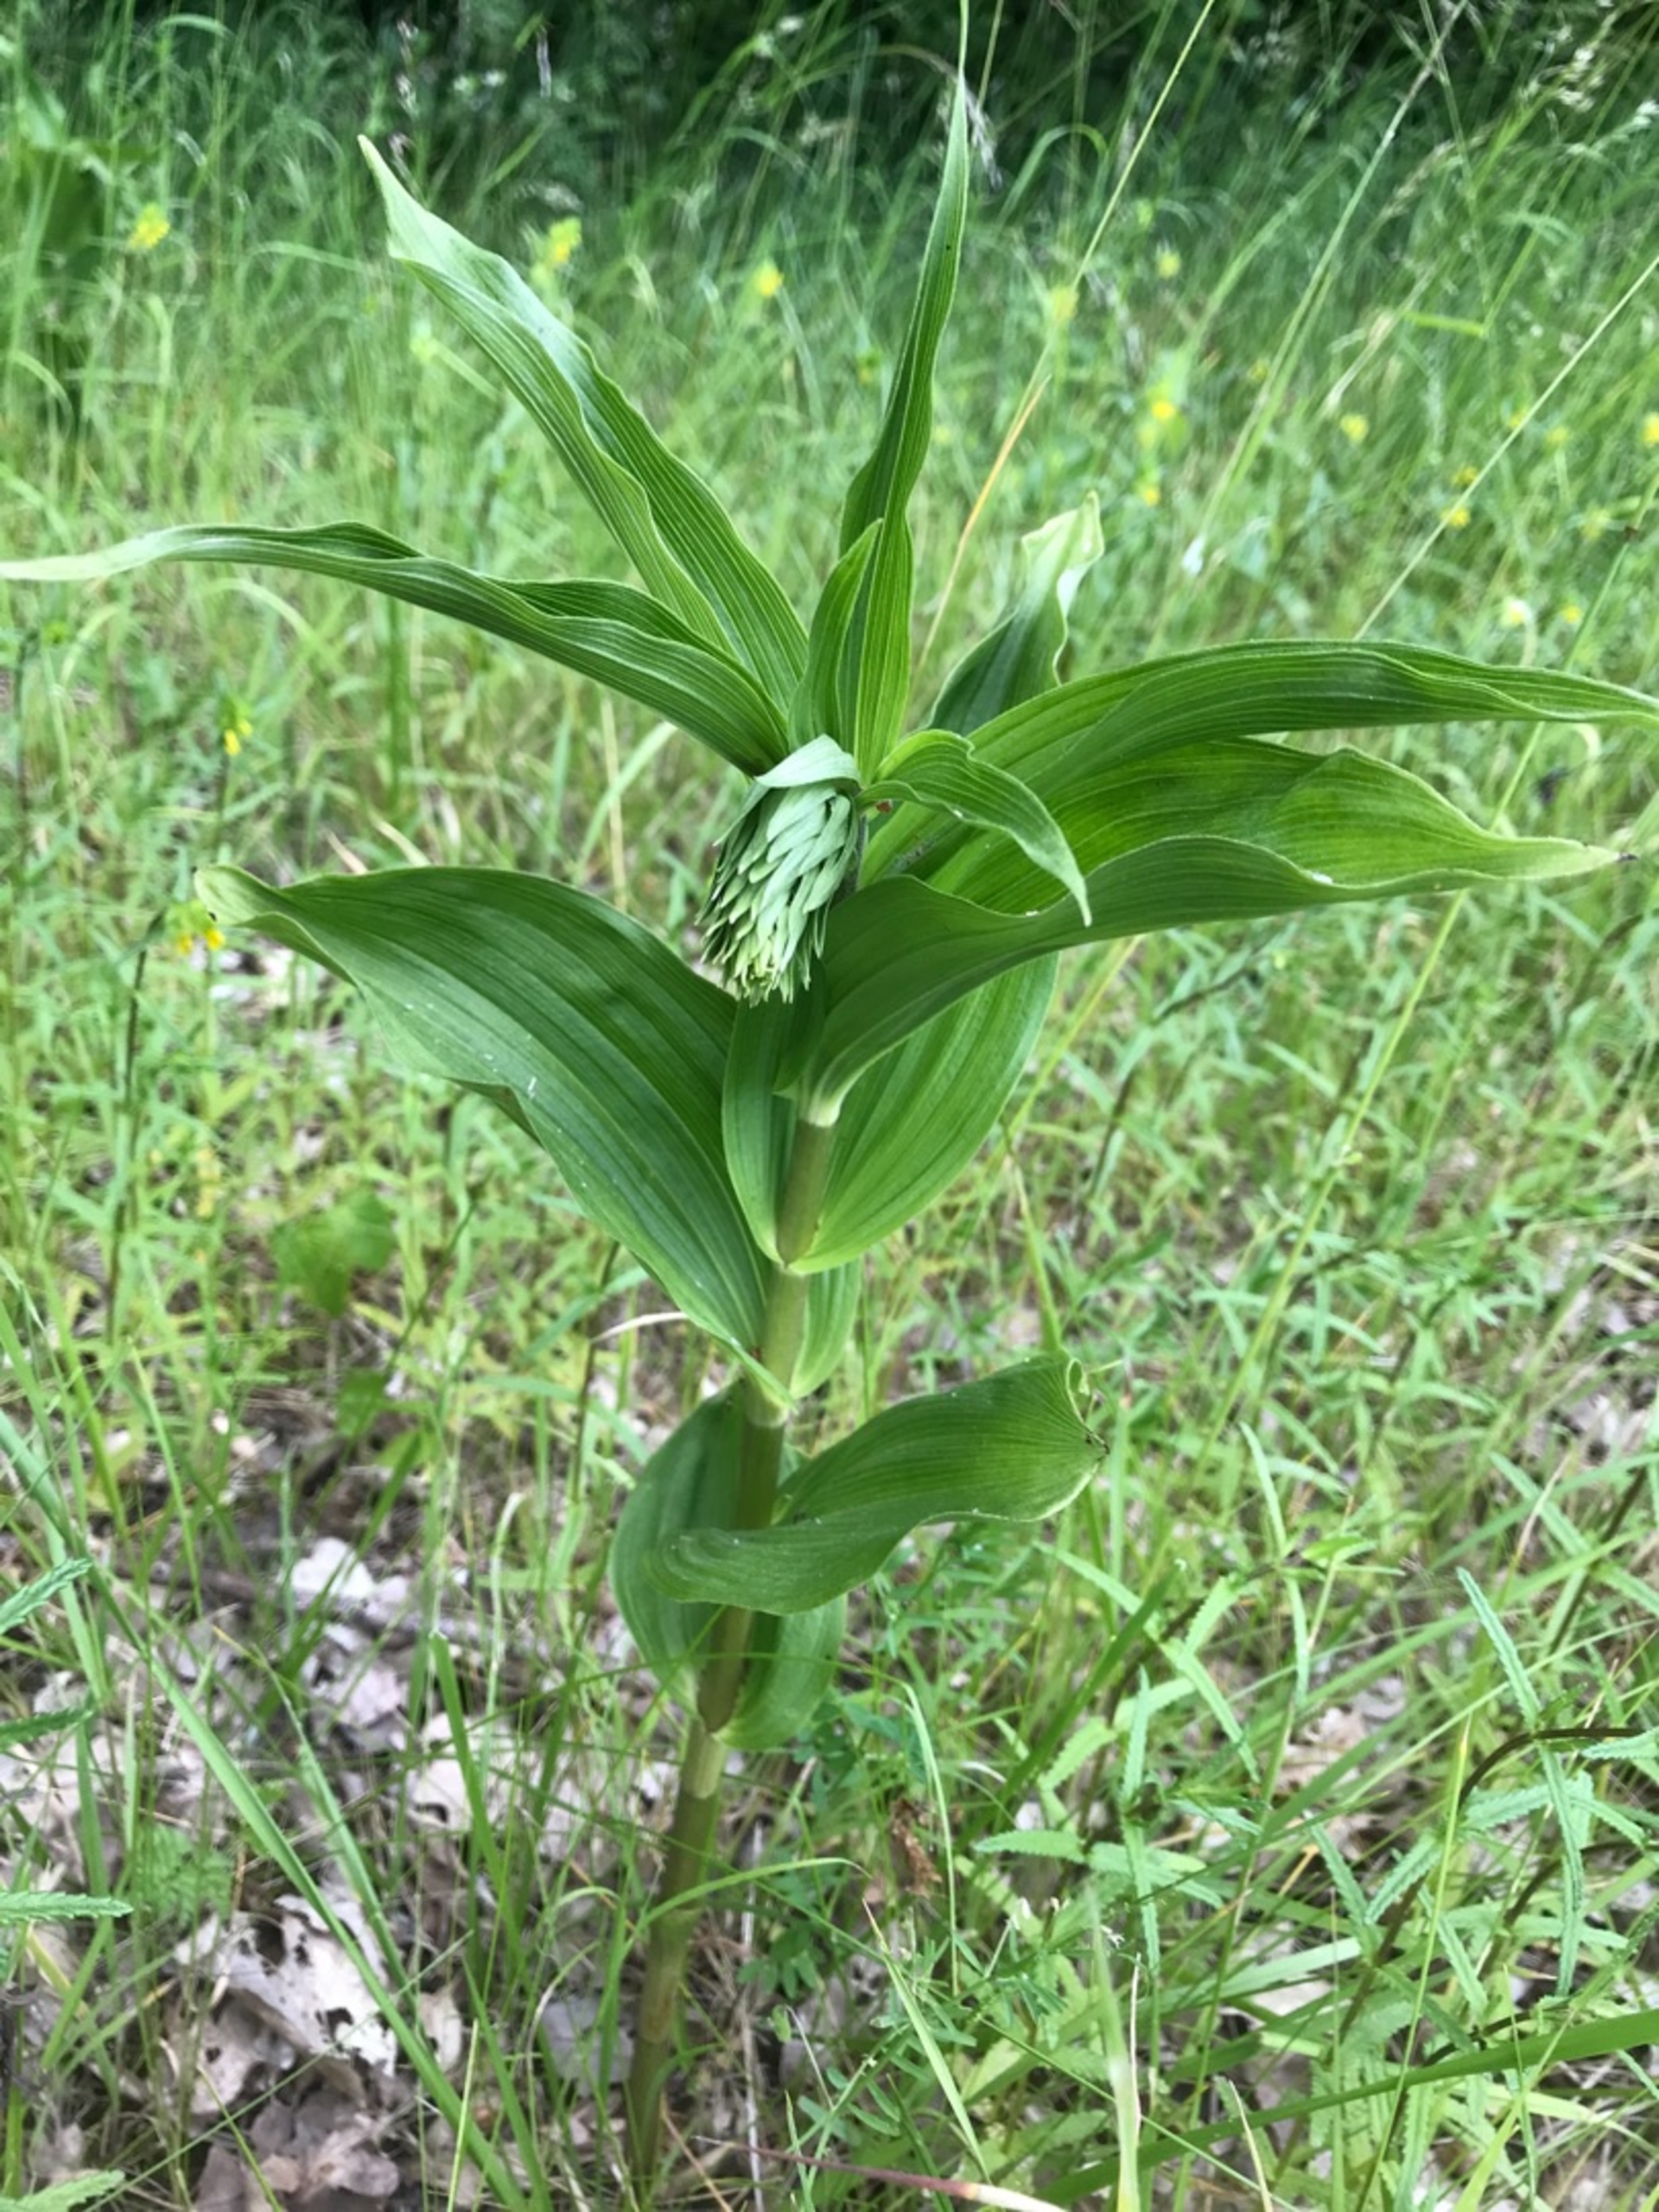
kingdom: Plantae
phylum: Tracheophyta
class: Liliopsida
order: Asparagales
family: Orchidaceae
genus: Epipactis
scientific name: Epipactis helleborine
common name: Skov-hullæbe
